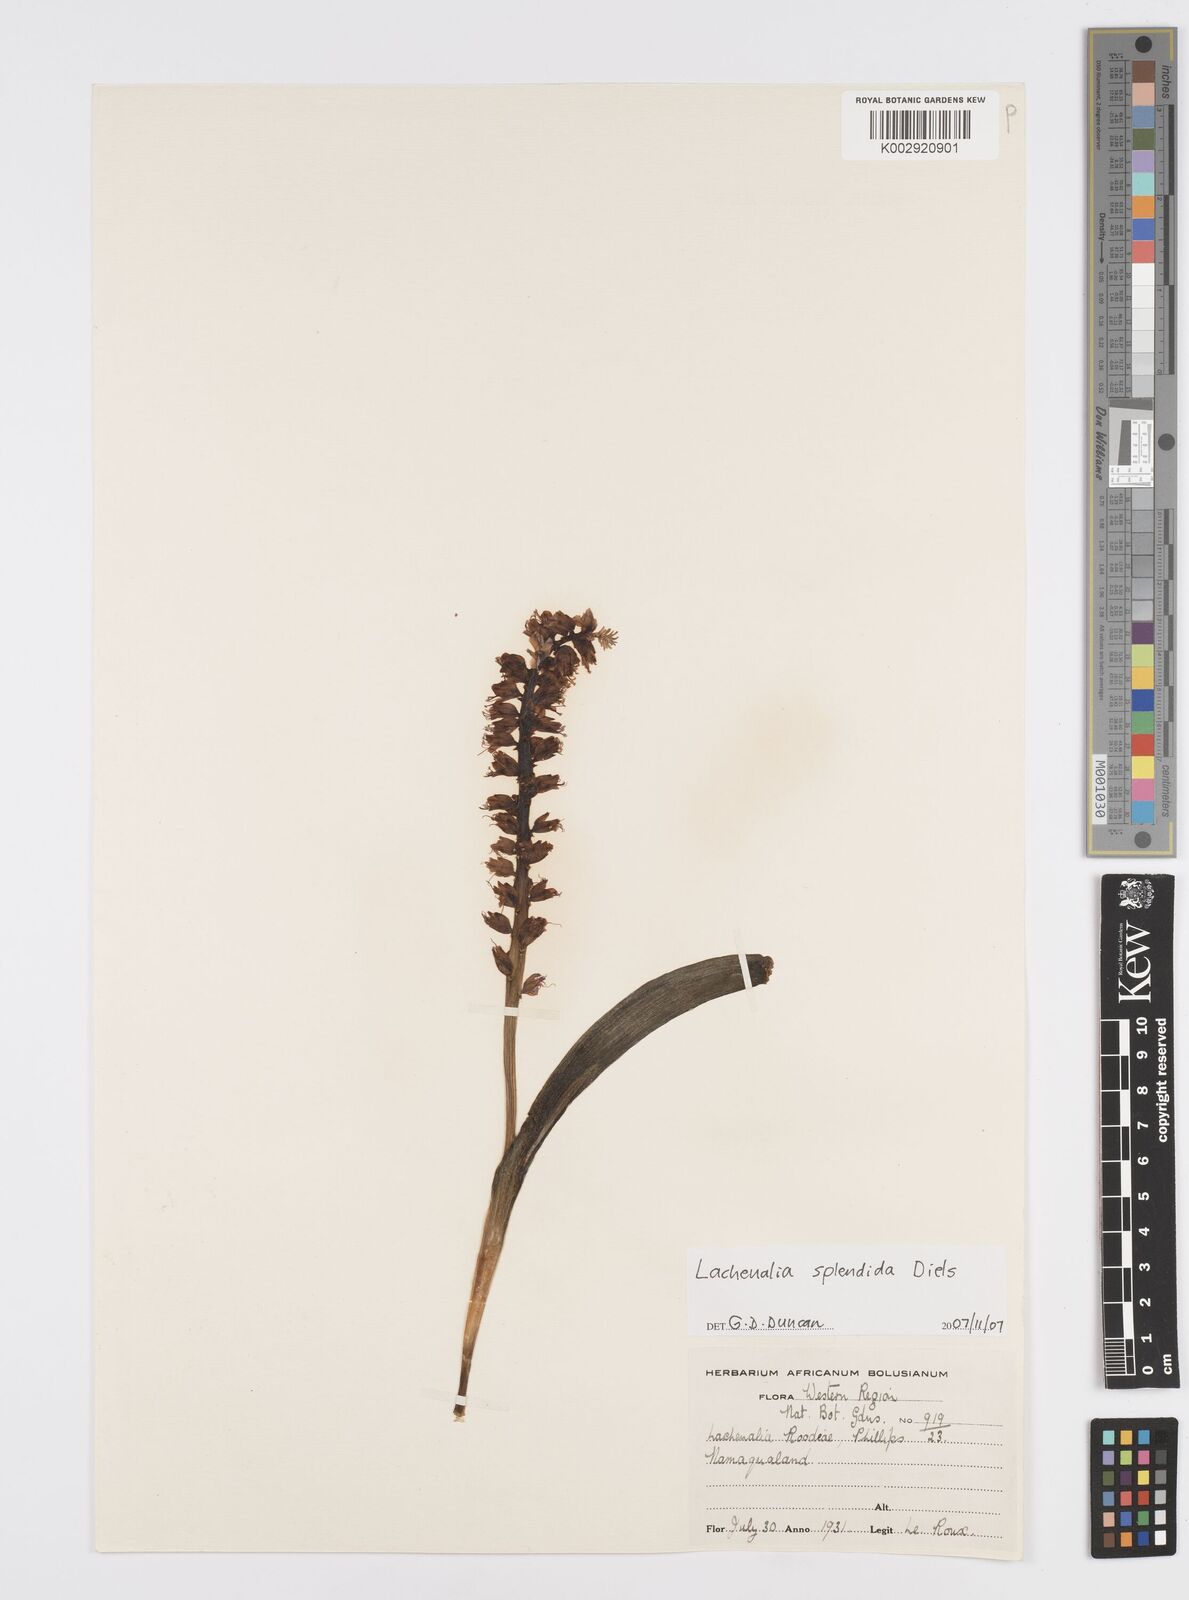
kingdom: Plantae
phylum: Tracheophyta
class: Liliopsida
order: Asparagales
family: Asparagaceae
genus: Lachenalia
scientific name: Lachenalia splendida
